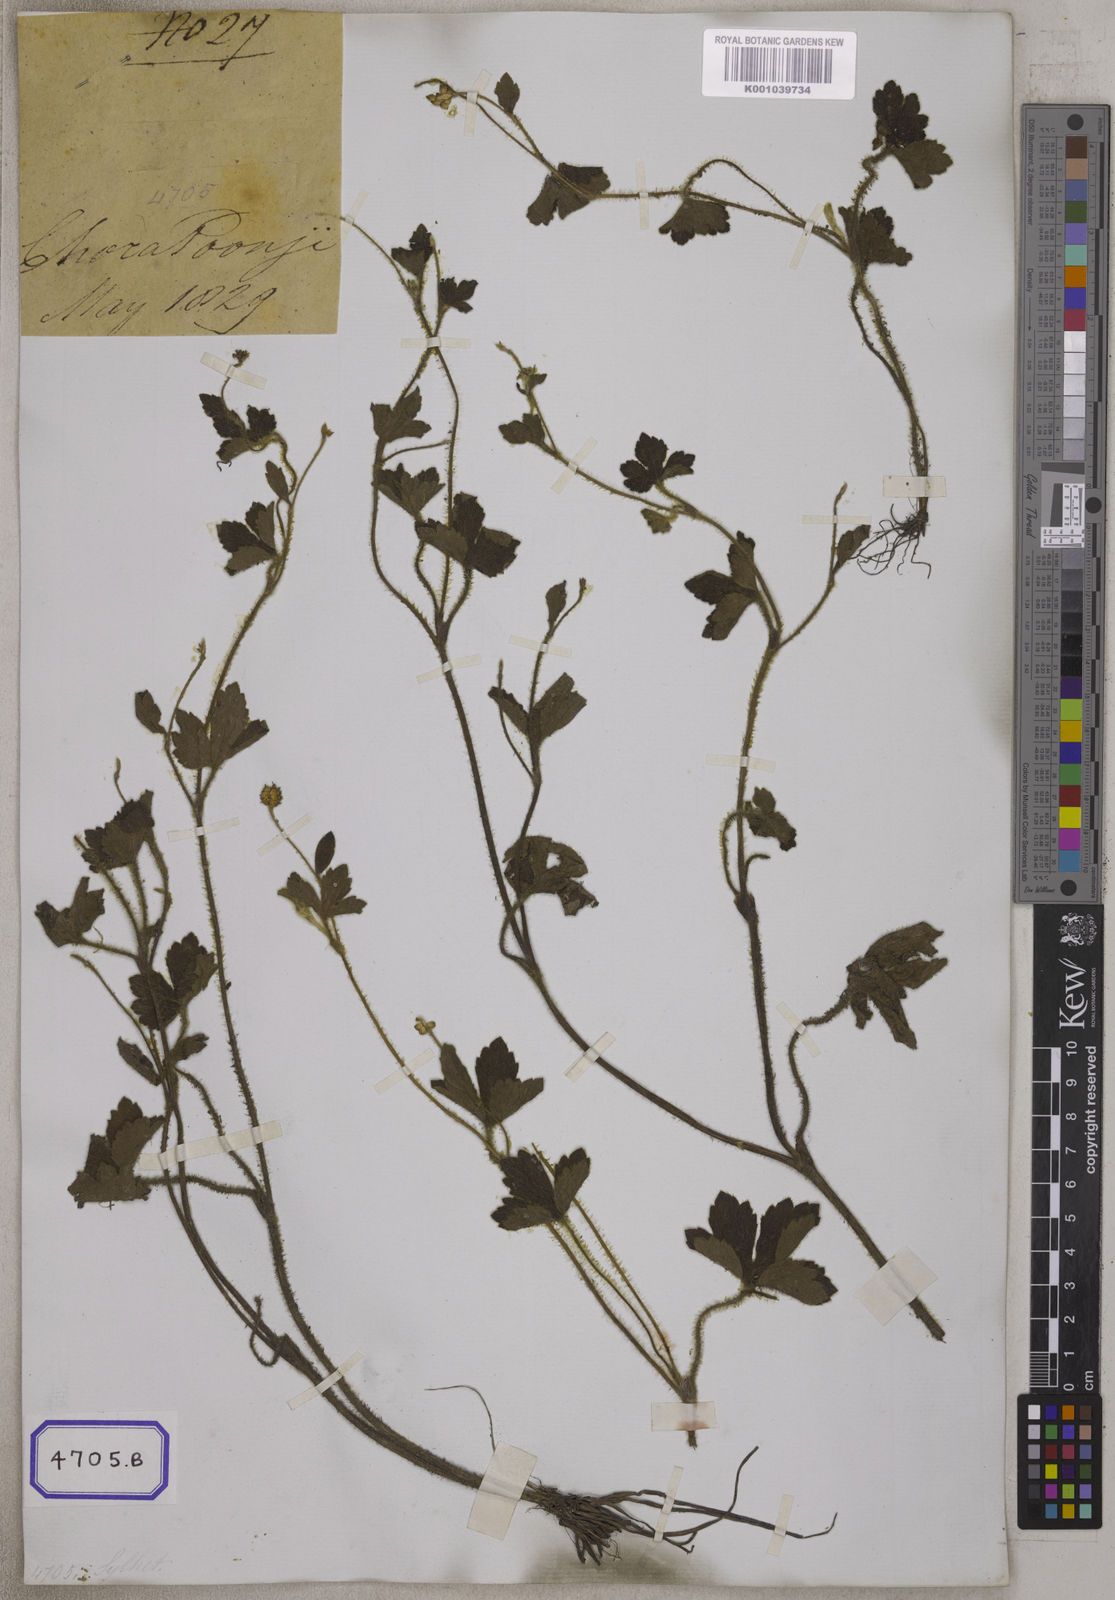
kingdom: Plantae
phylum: Tracheophyta
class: Magnoliopsida
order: Ranunculales
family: Ranunculaceae
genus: Ranunculus
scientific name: Ranunculus diffusus
